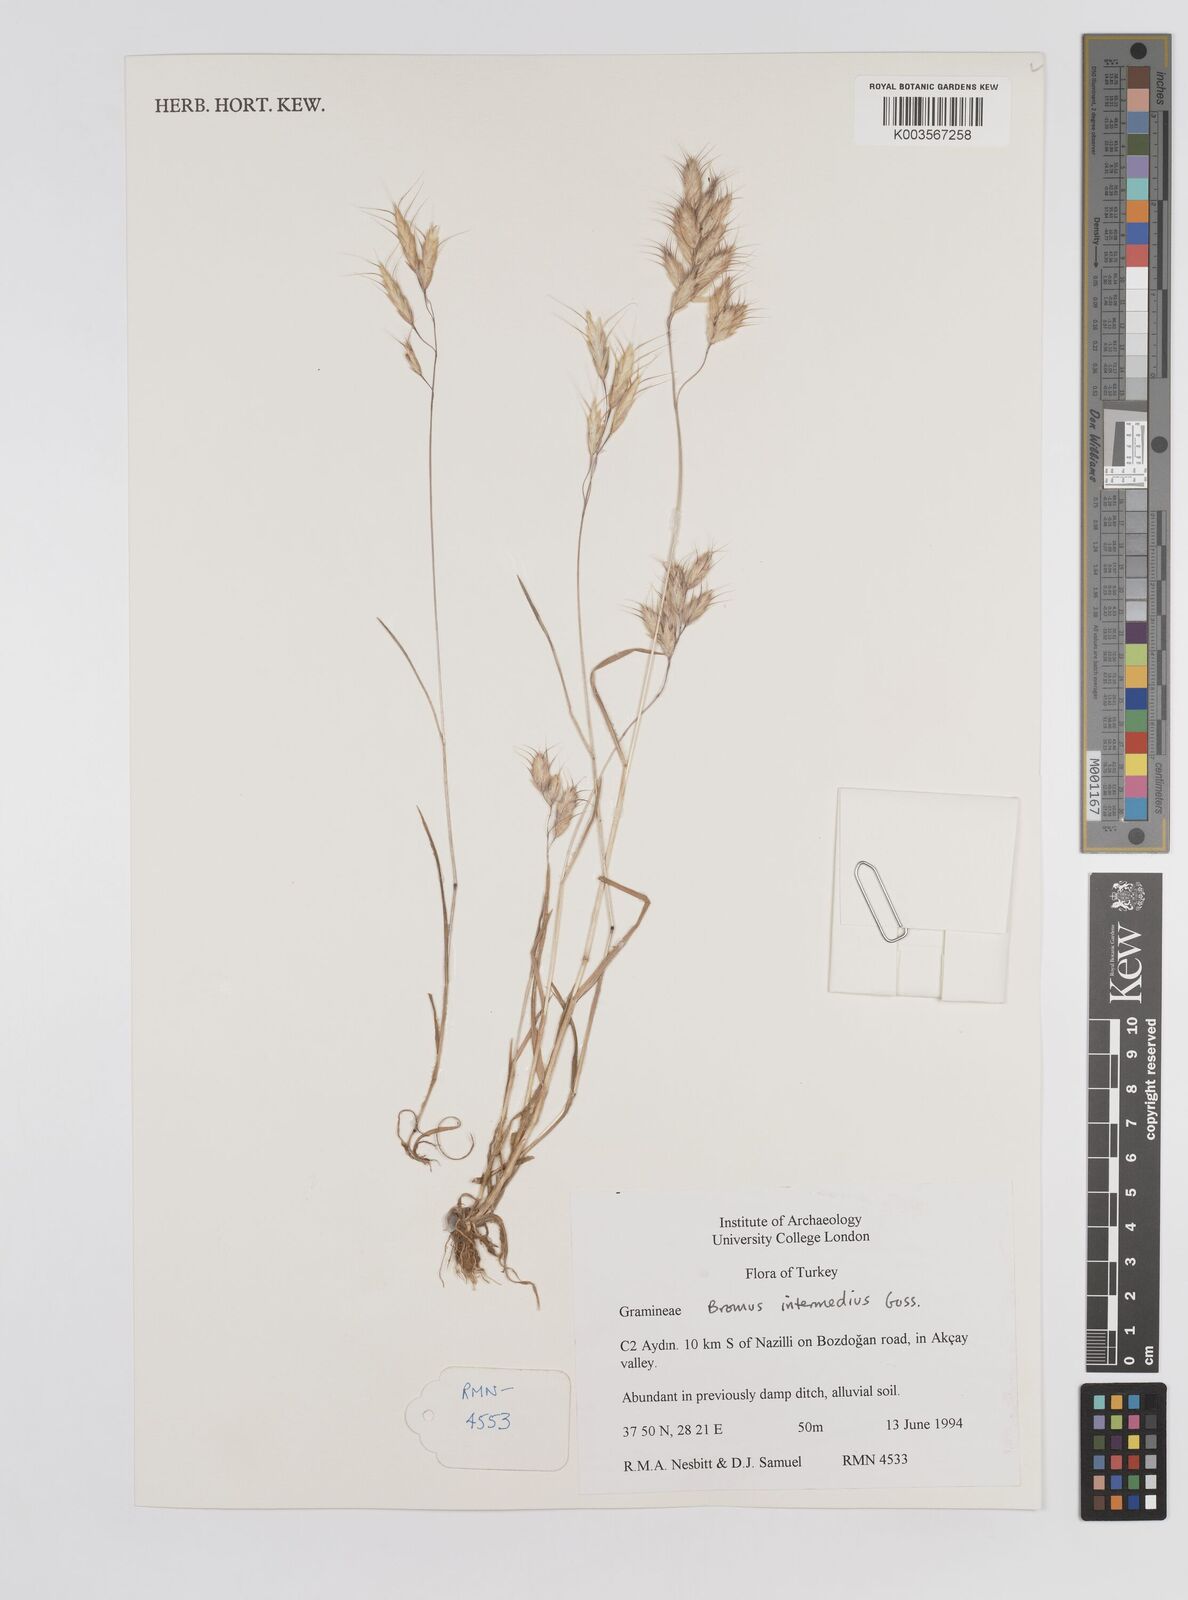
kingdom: Plantae
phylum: Tracheophyta
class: Liliopsida
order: Poales
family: Poaceae
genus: Bromus
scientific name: Bromus intermedius
